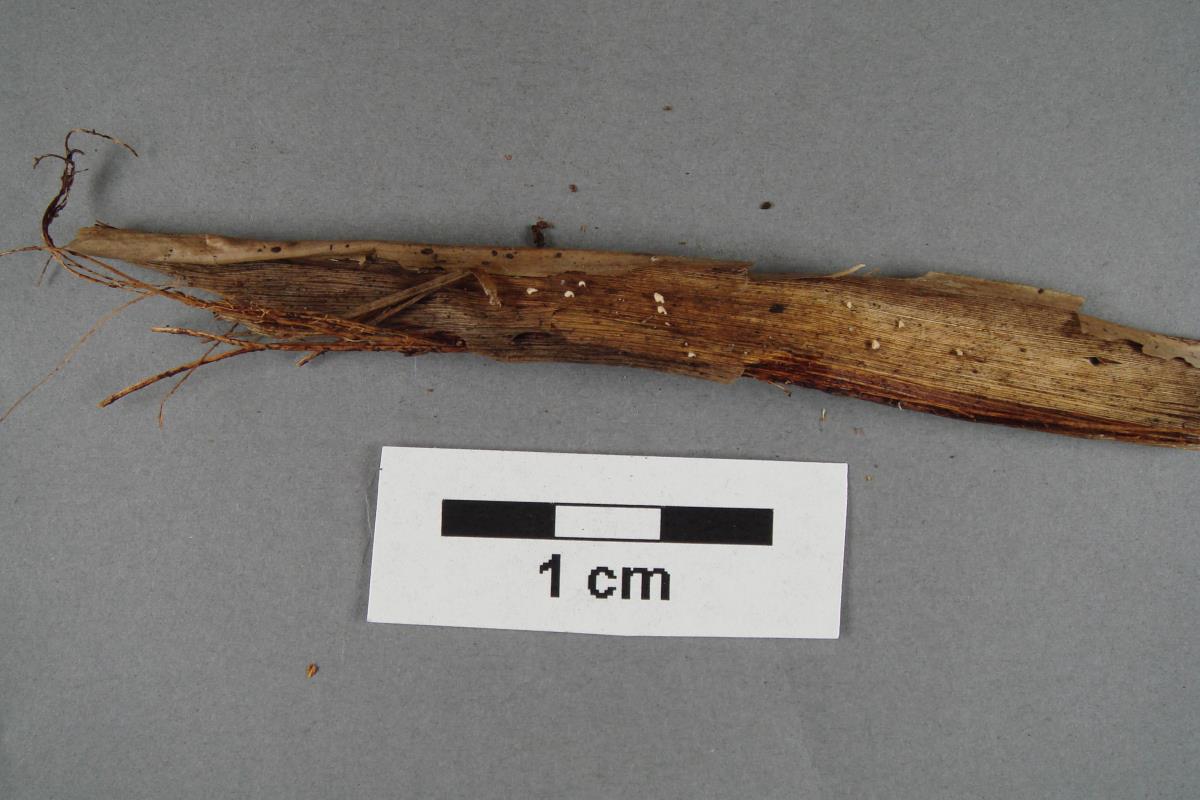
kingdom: Fungi
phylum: Basidiomycota
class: Agaricomycetes
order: Agaricales
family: Niaceae
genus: Flagelloscypha
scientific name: Flagelloscypha
